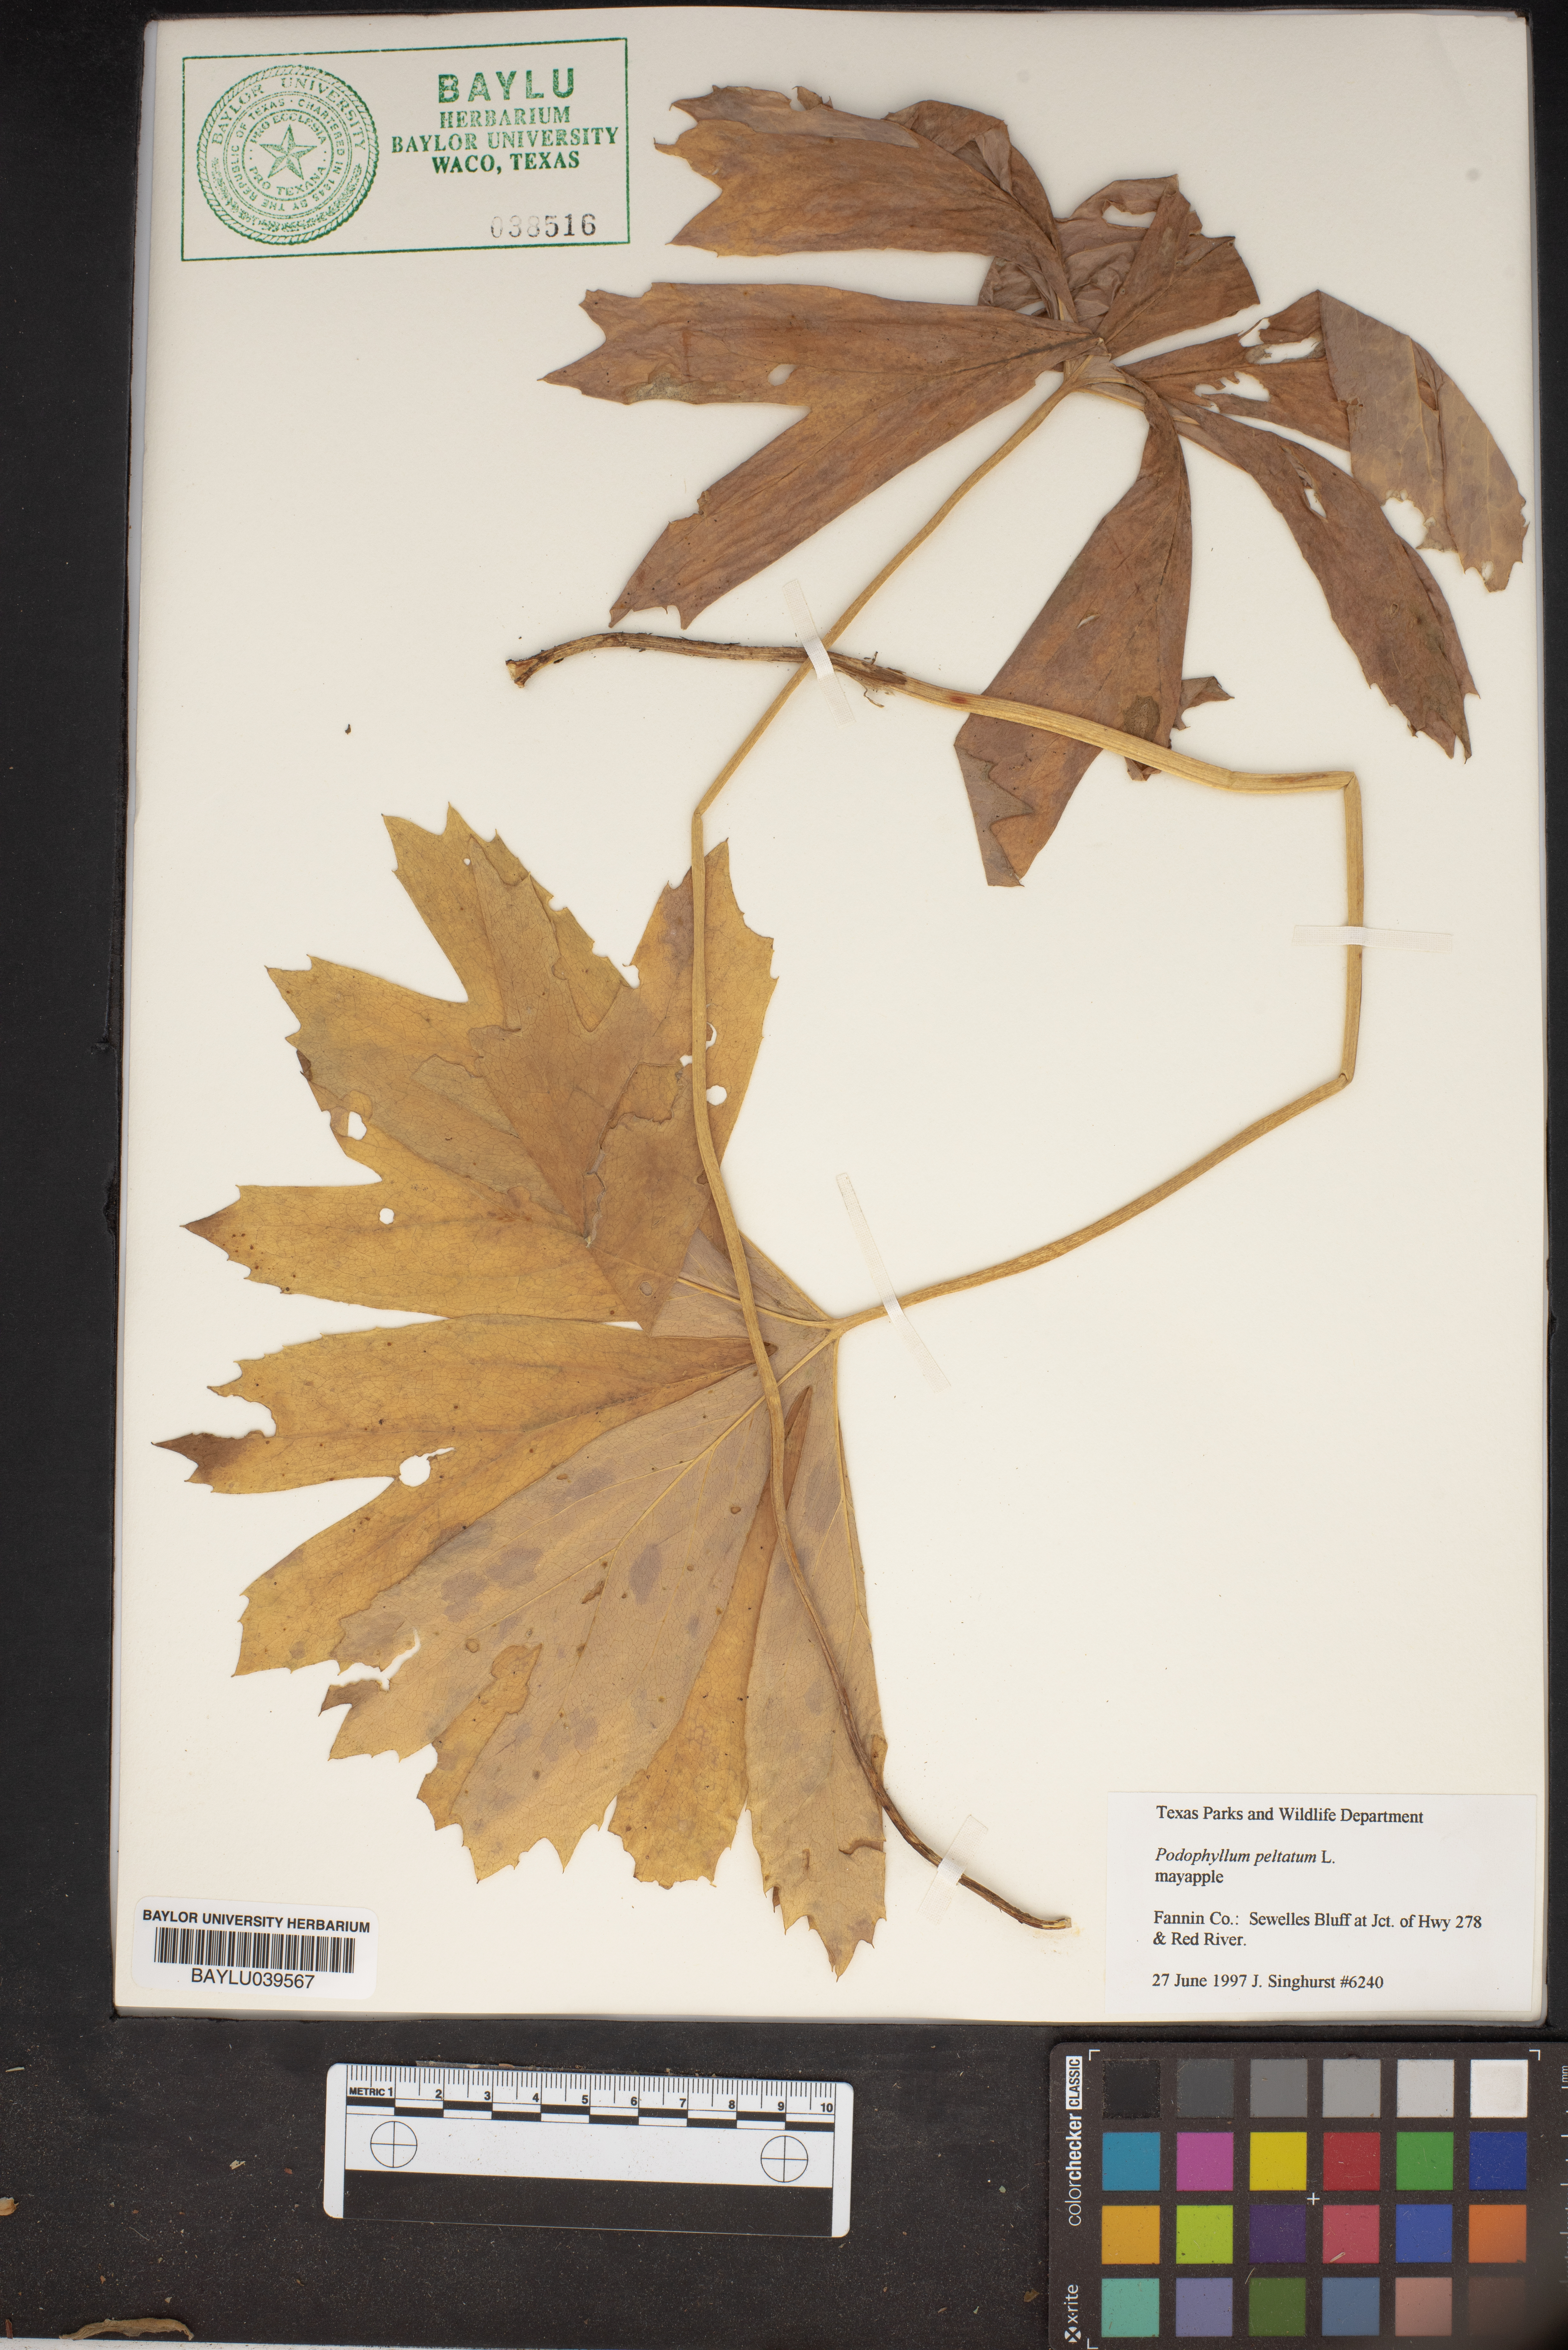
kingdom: Plantae
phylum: Tracheophyta
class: Magnoliopsida
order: Ranunculales
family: Berberidaceae
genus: Podophyllum
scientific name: Podophyllum peltatum
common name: Wild mandrake
